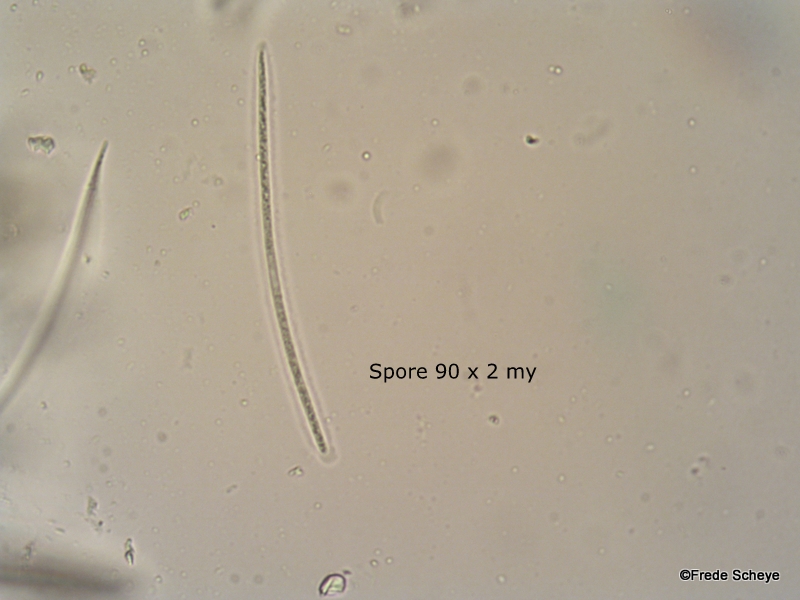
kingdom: Fungi
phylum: Ascomycota
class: Leotiomycetes
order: Rhytismatales
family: Rhytismataceae
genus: Lophodermium
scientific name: Lophodermium pinastri
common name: fyrre-fureplet
